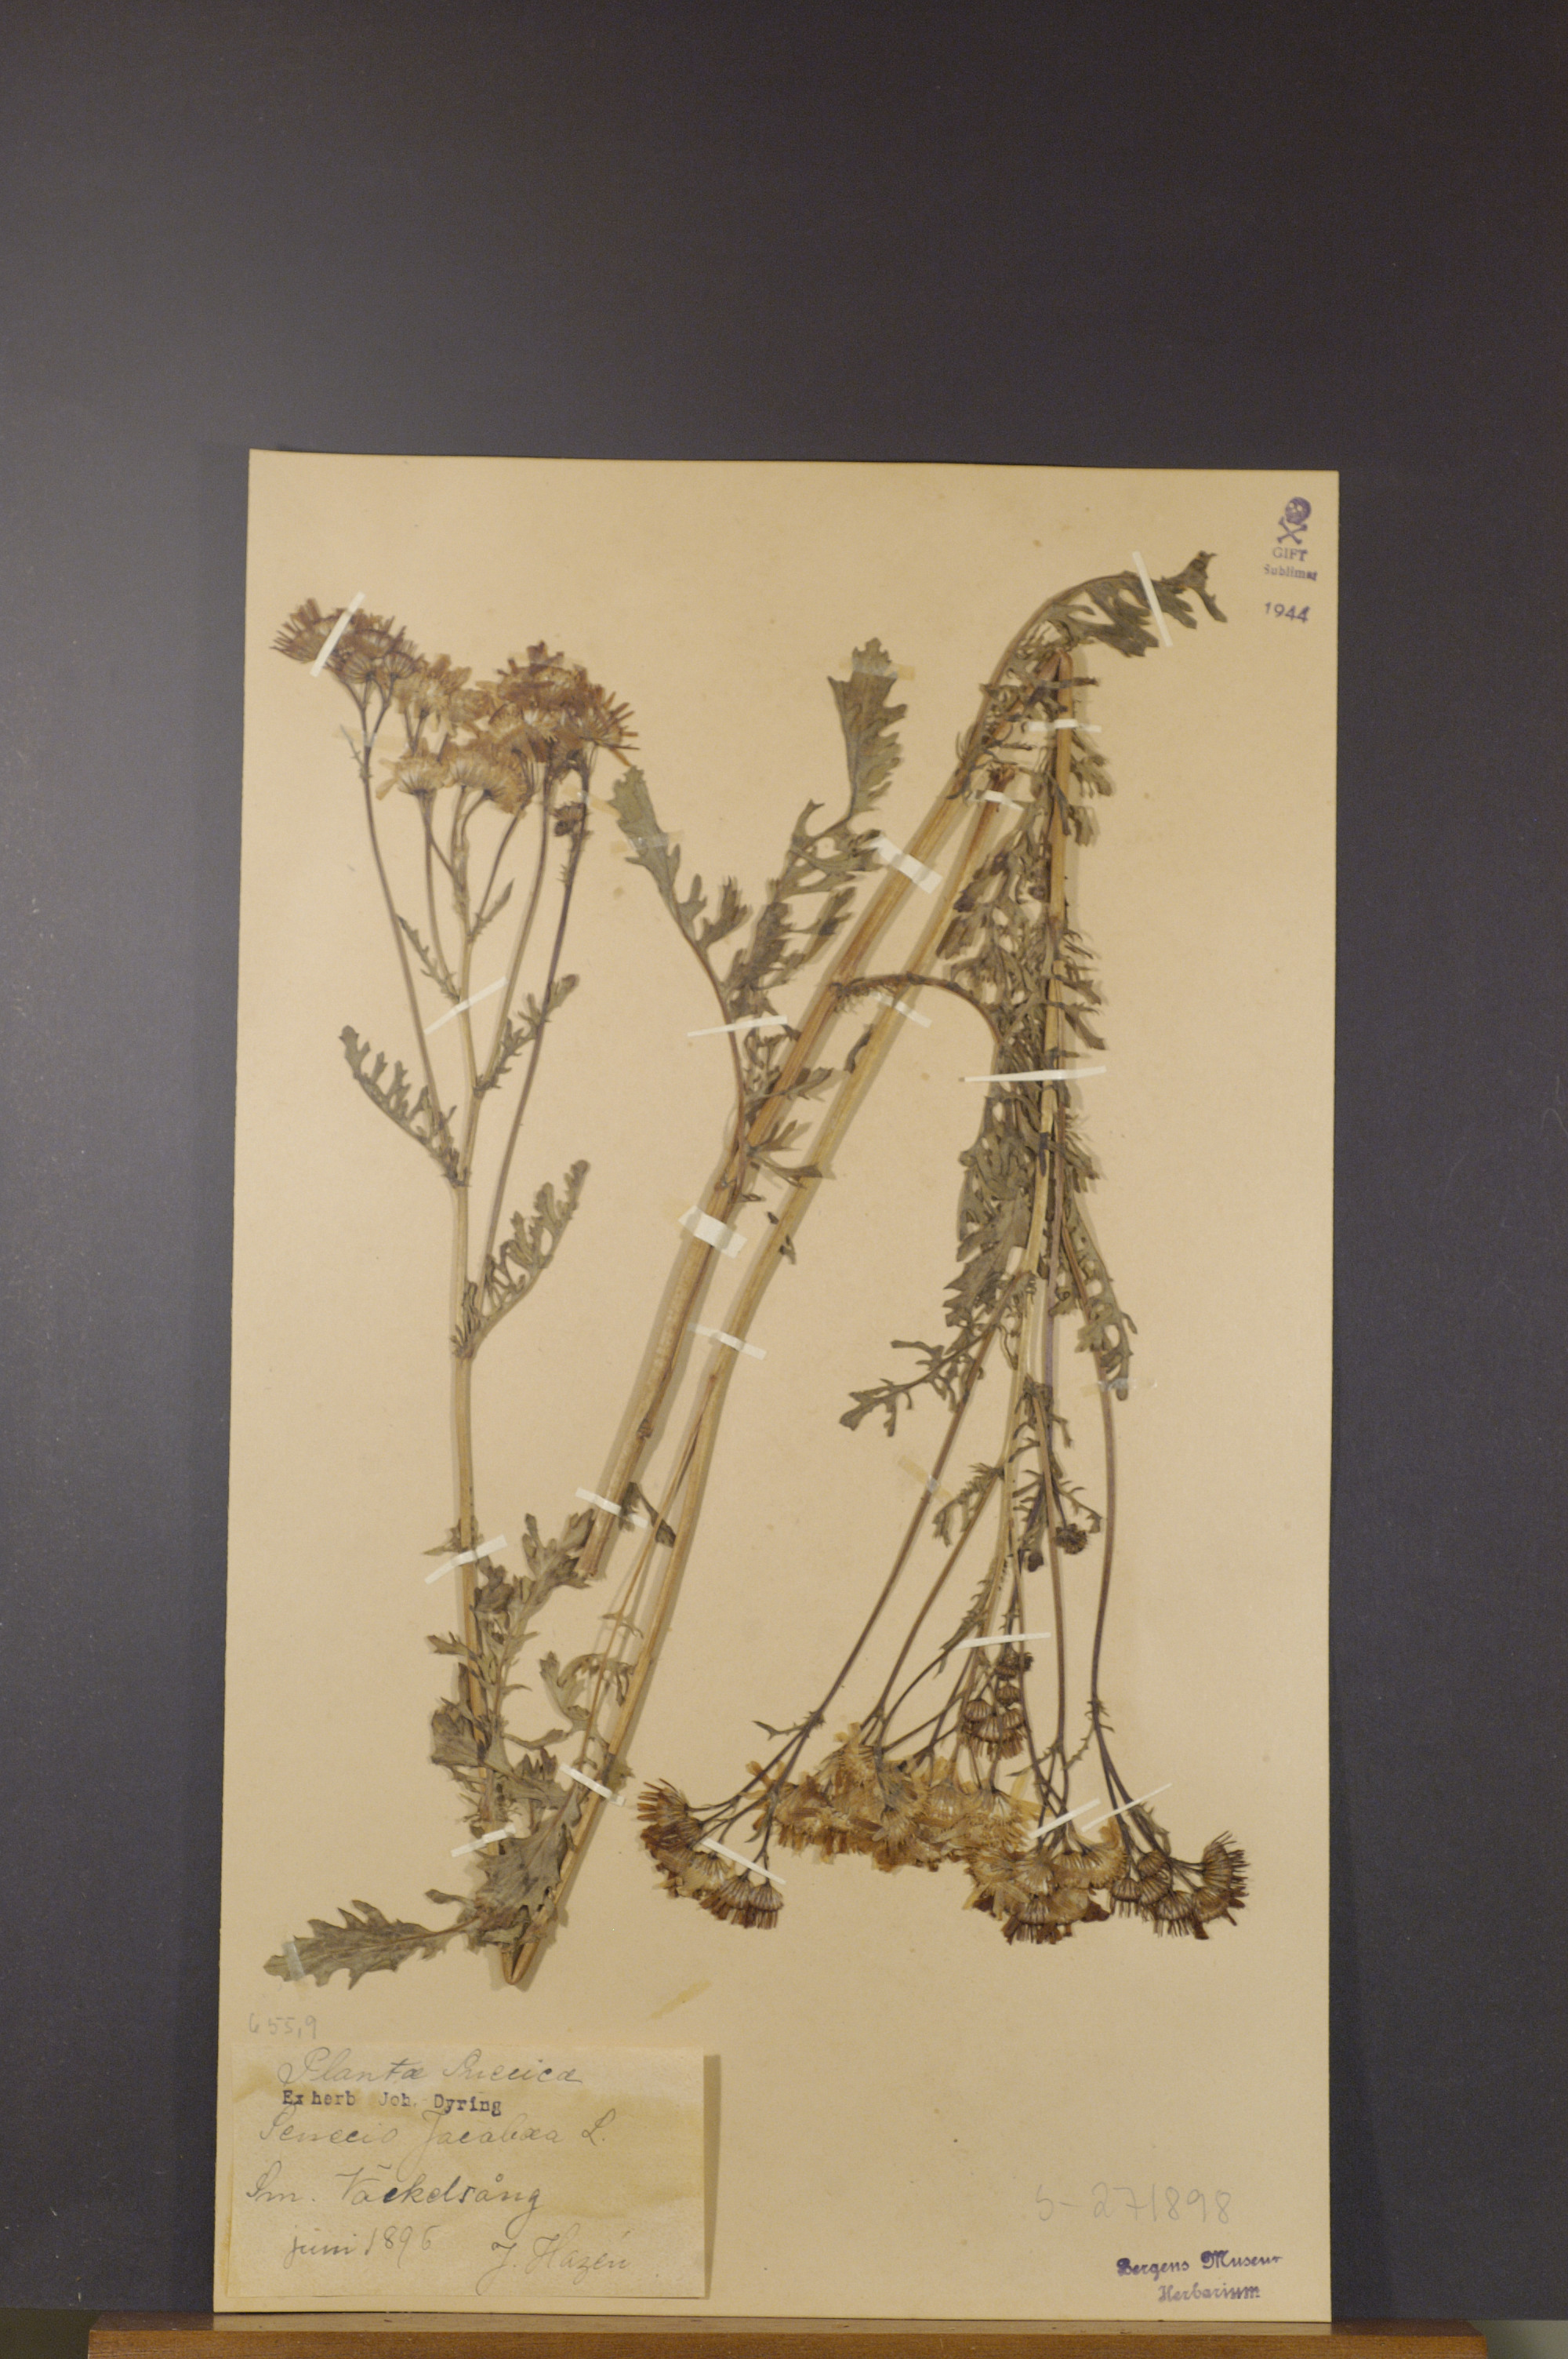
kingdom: Plantae
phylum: Tracheophyta
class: Magnoliopsida
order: Asterales
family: Asteraceae
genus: Jacobaea
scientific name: Jacobaea vulgaris
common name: Stinking willie
